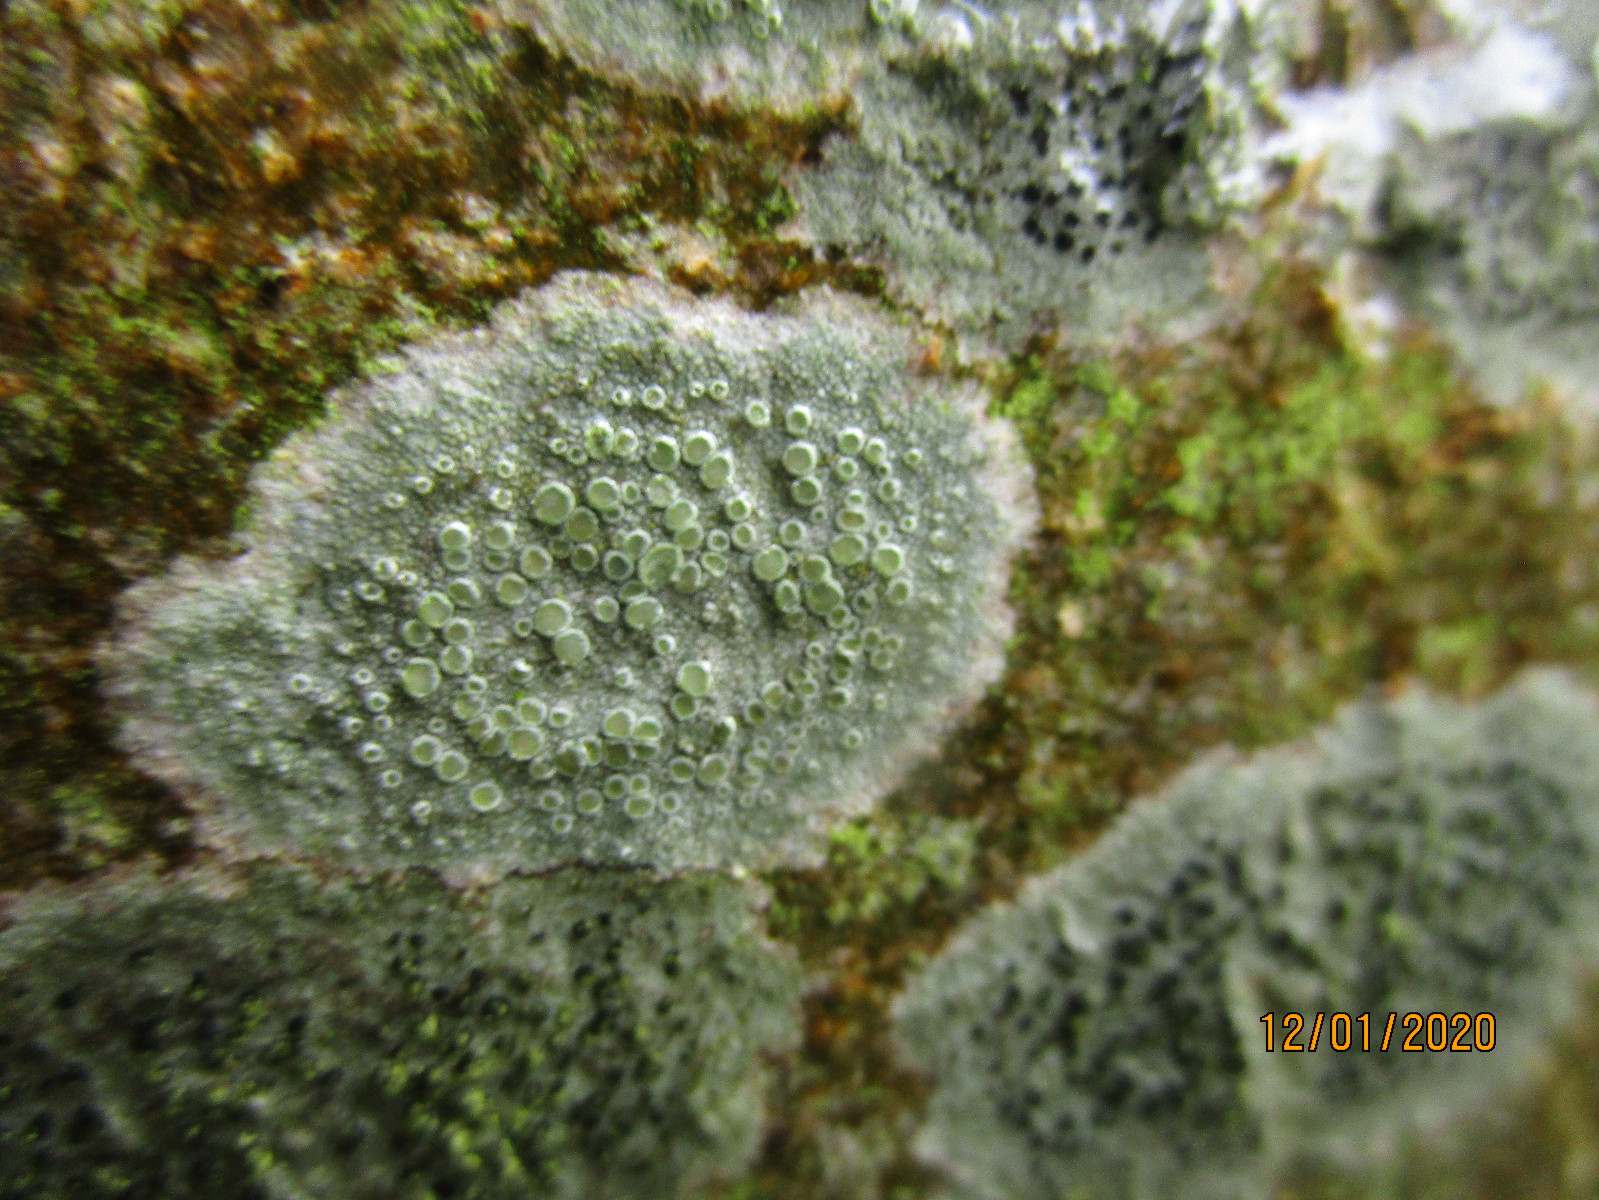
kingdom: Fungi
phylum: Ascomycota
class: Lecanoromycetes
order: Lecanorales
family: Lecanoraceae
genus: Lecanora
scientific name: Lecanora chlarotera
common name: brun kantskivelav
